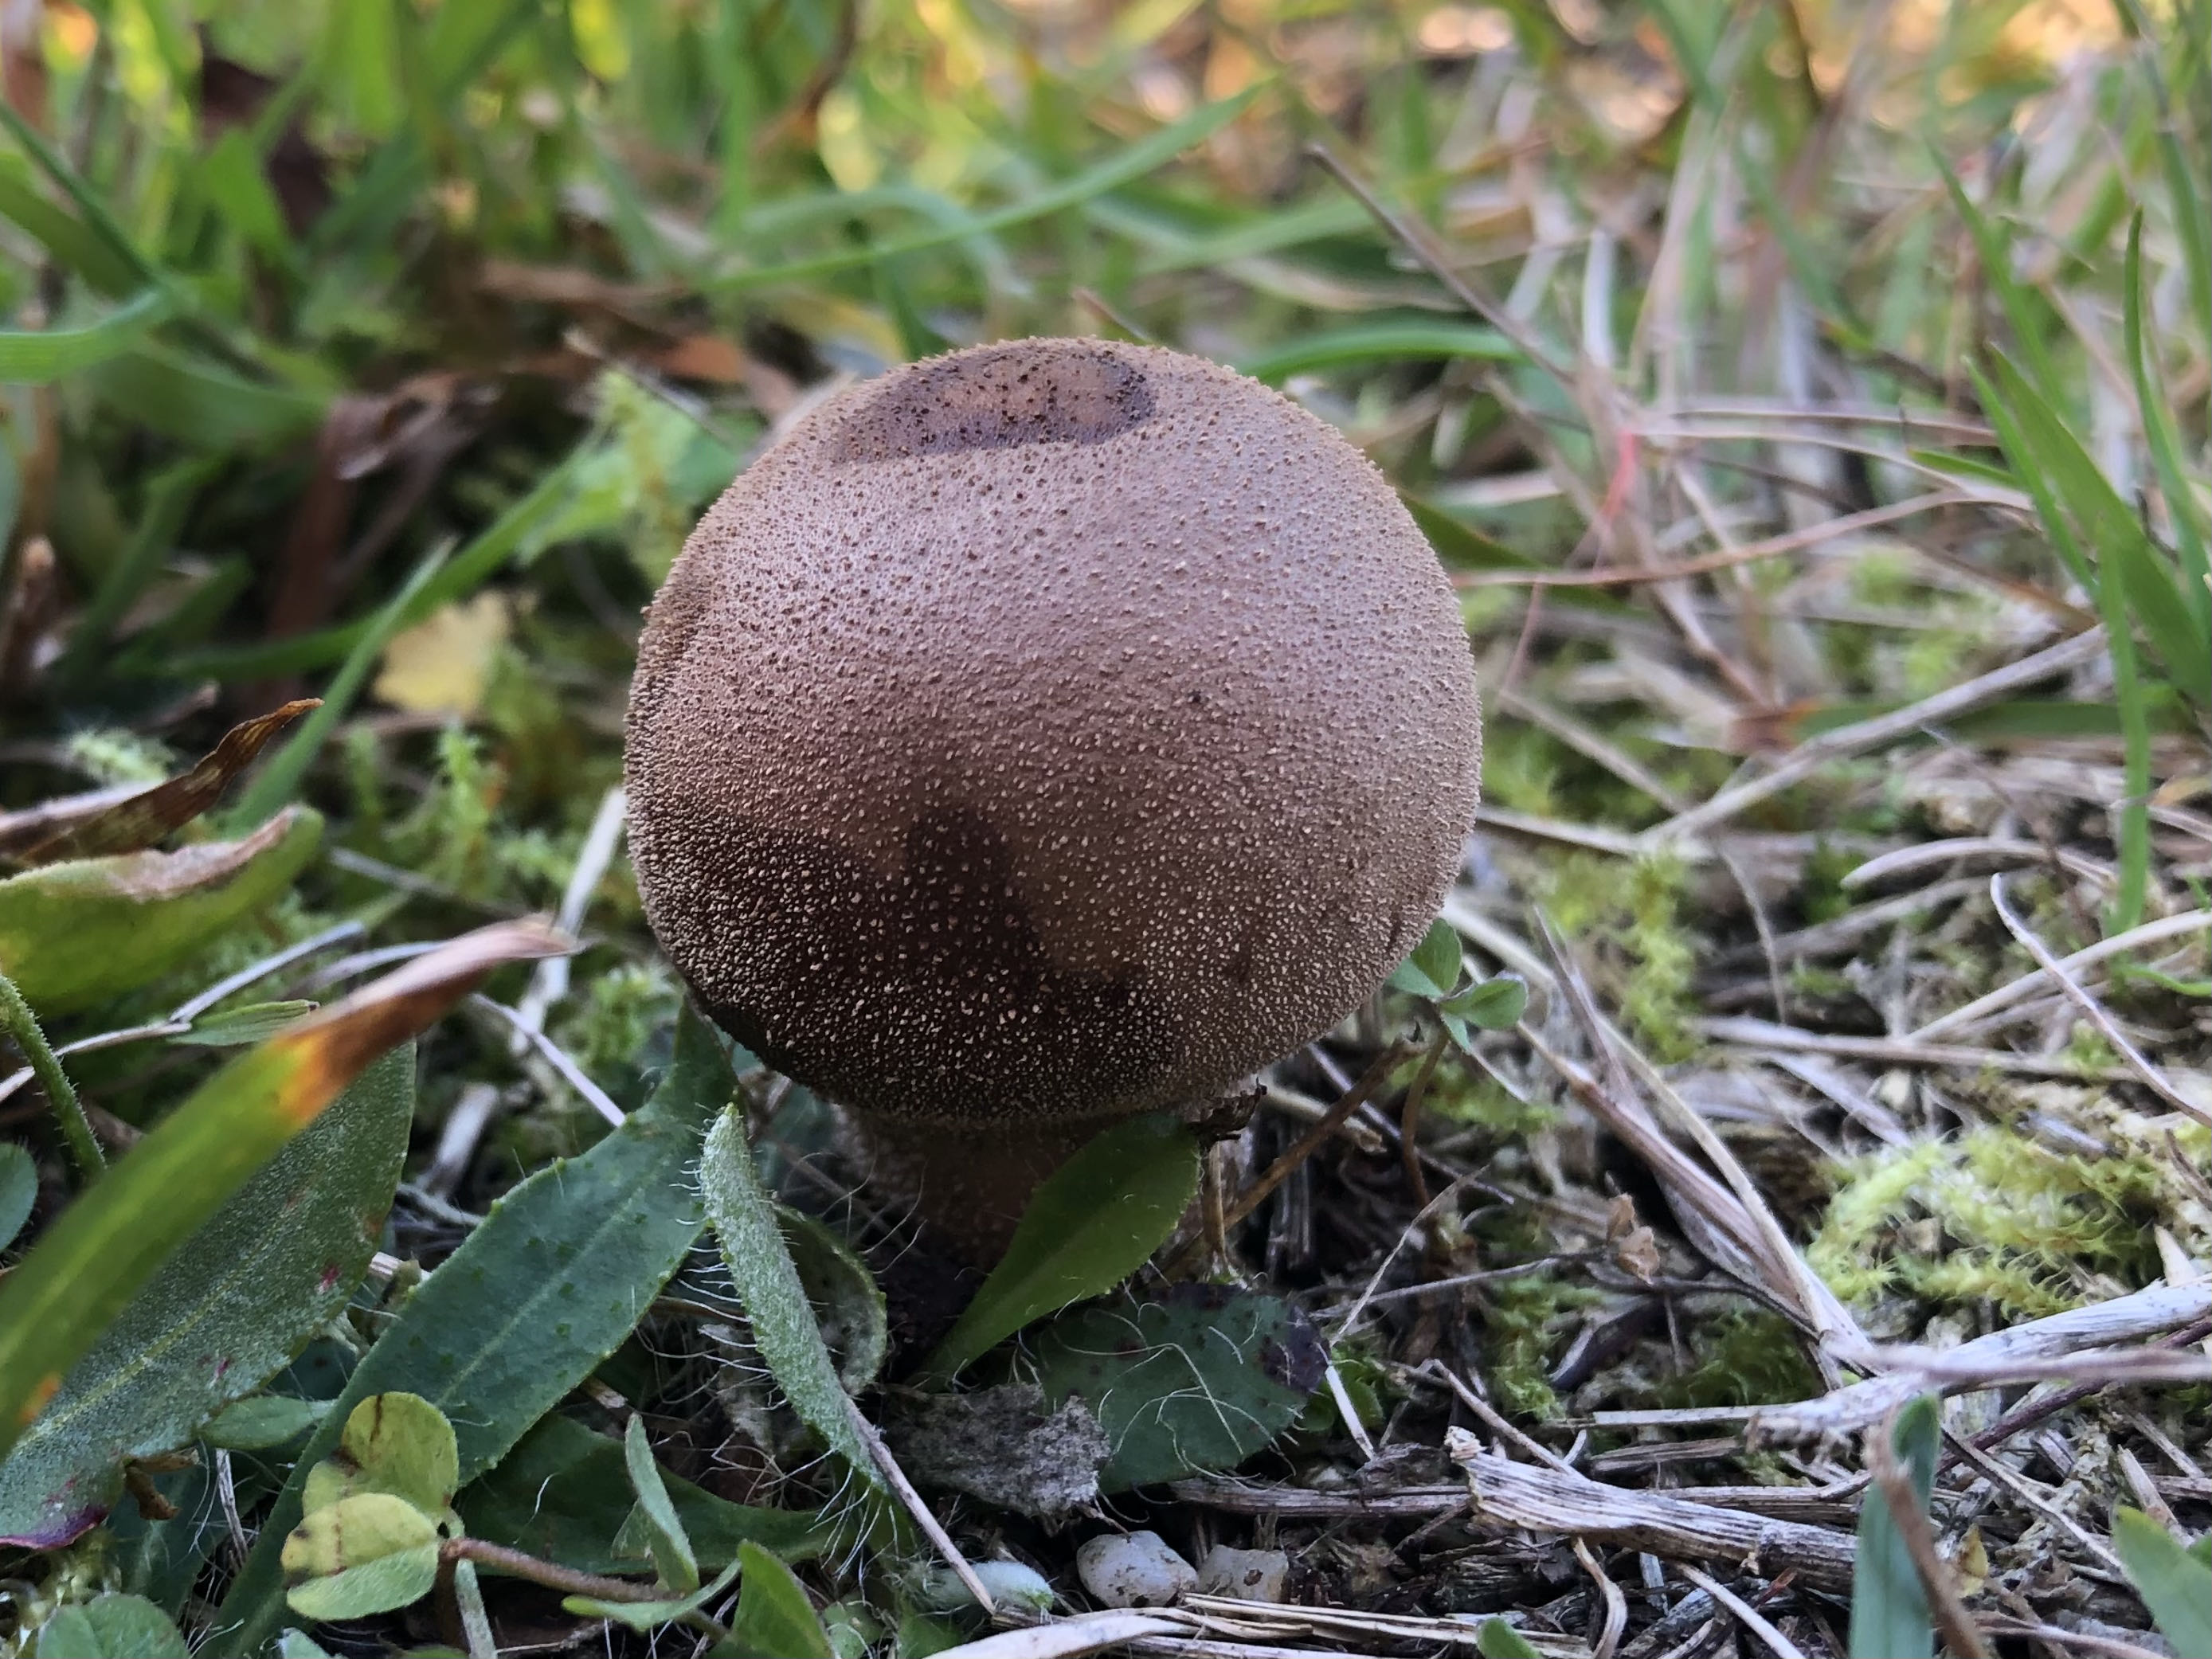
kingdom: Fungi
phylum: Basidiomycota
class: Agaricomycetes
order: Agaricales
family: Lycoperdaceae
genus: Lycoperdon
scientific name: Lycoperdon lividum
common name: mark-støvbold
